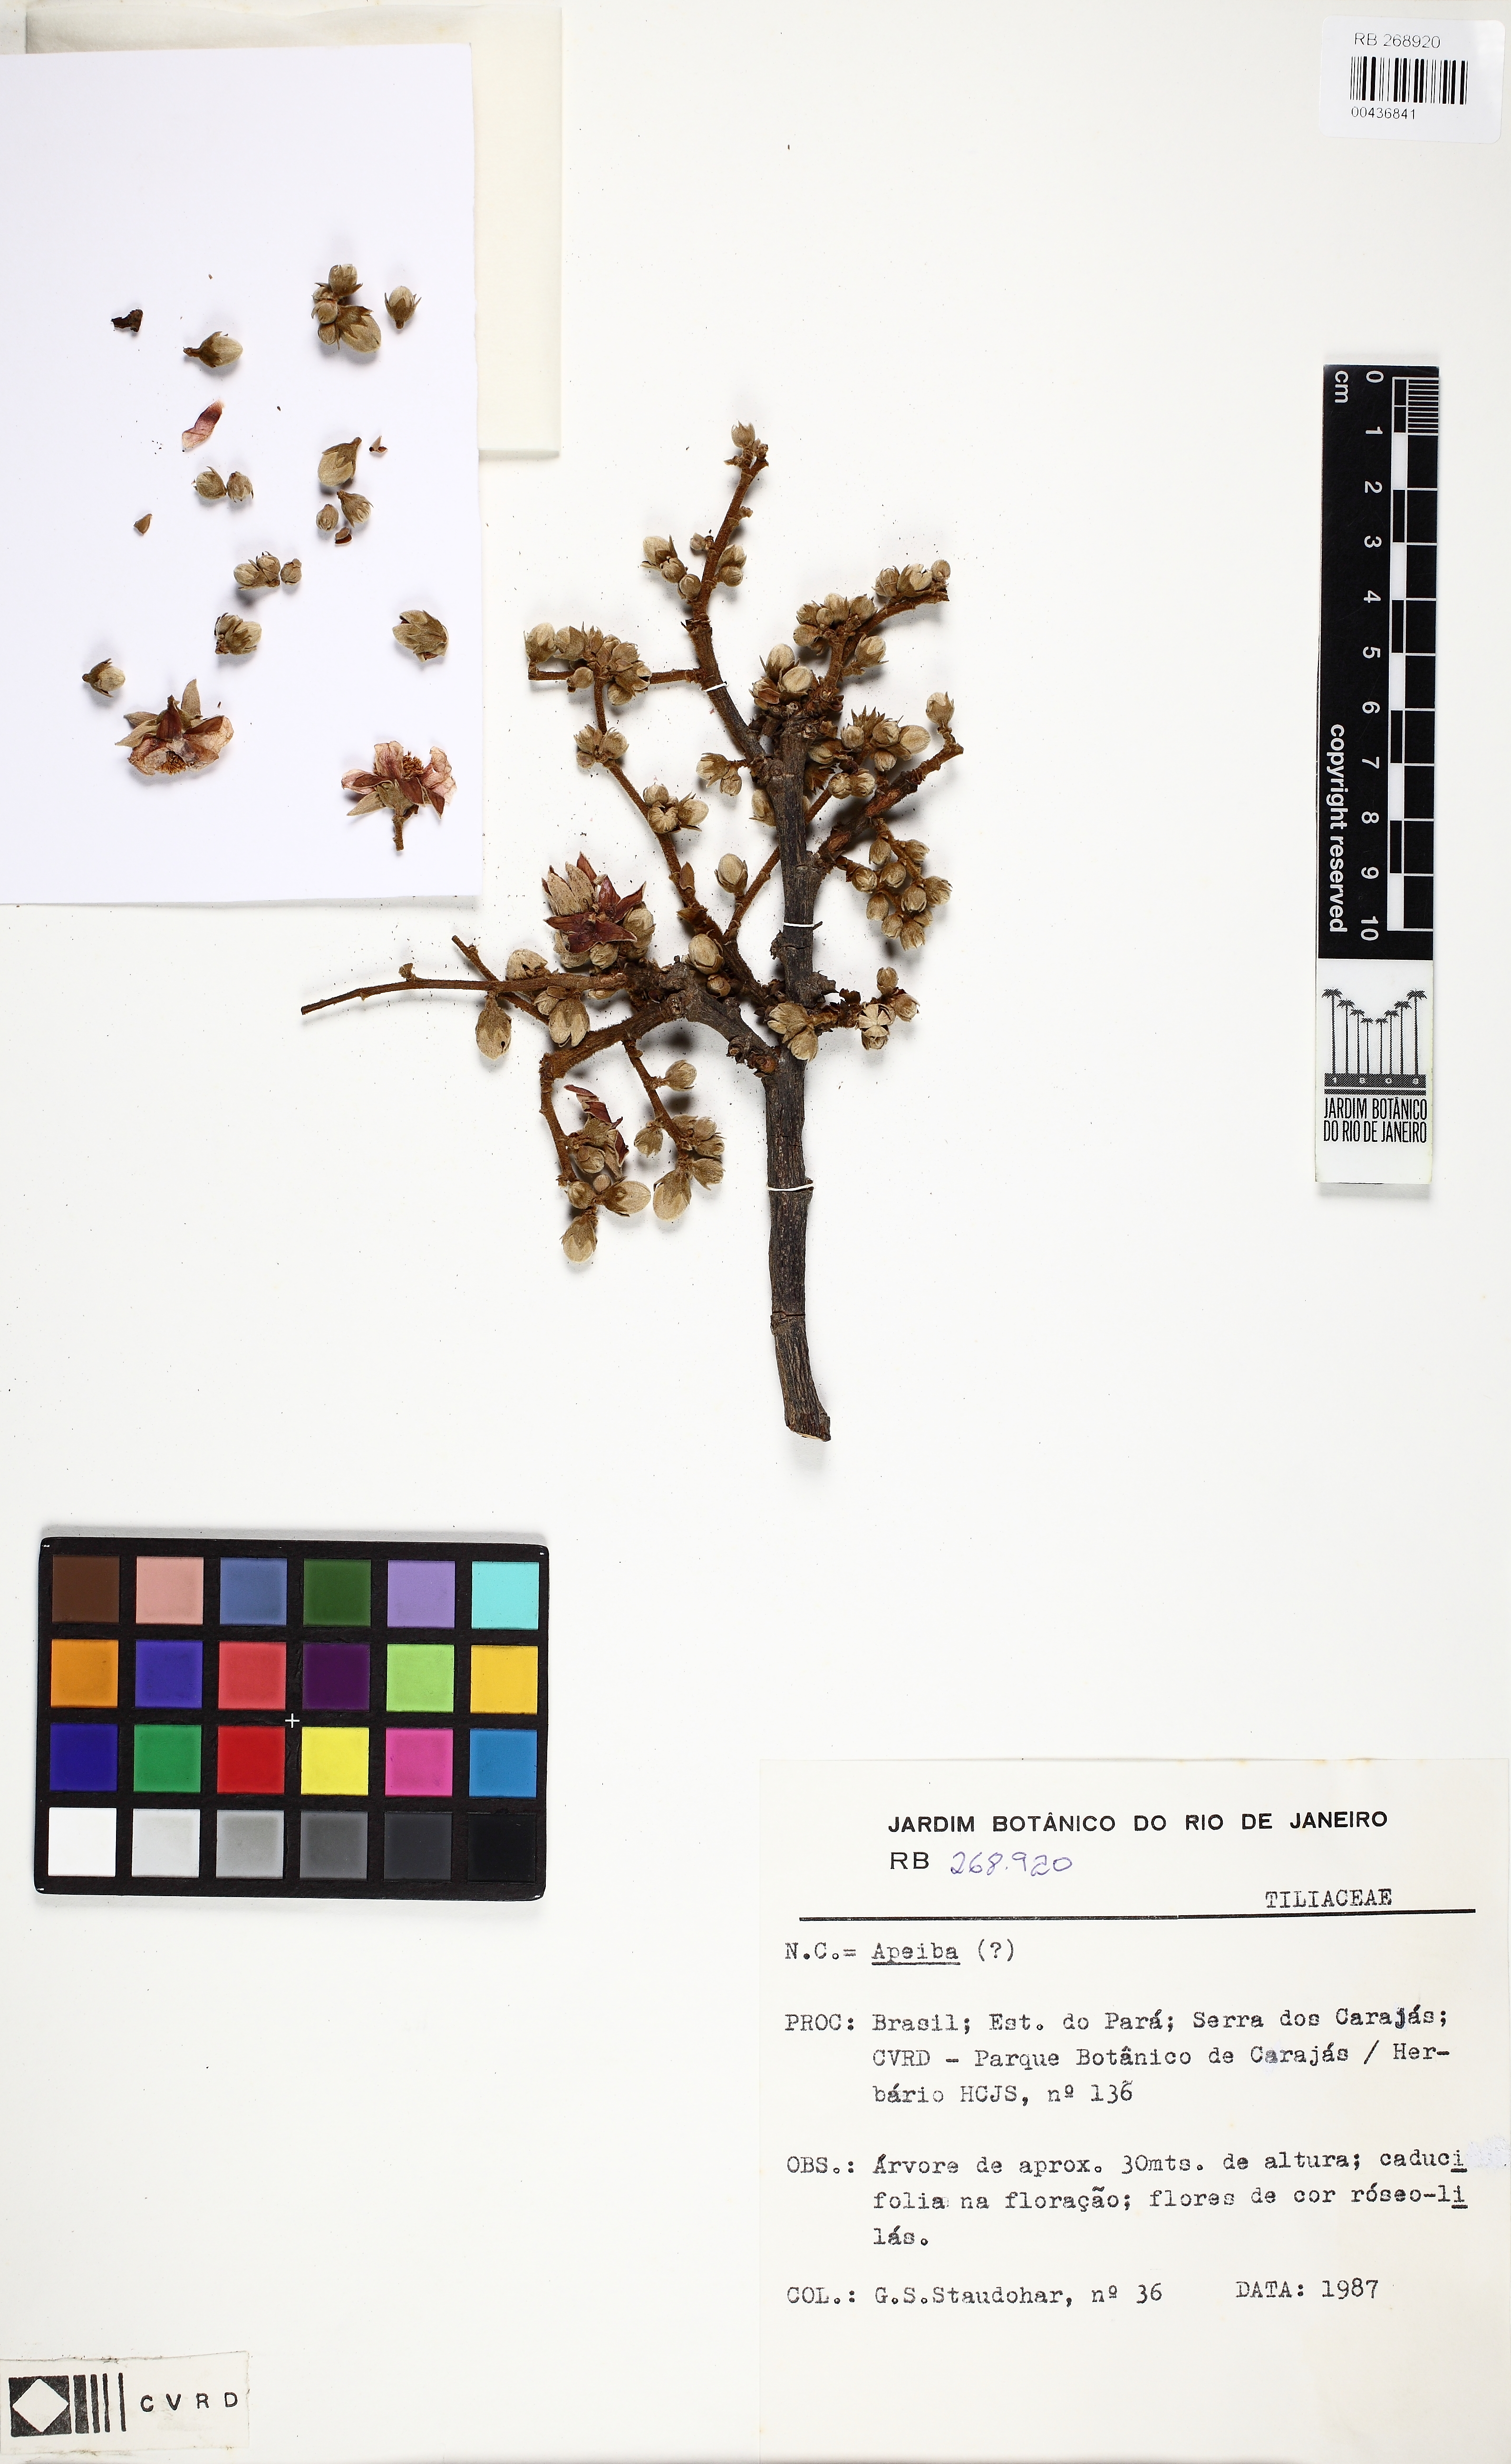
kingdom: Plantae
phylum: Tracheophyta
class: Magnoliopsida
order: Malvales
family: Malvaceae
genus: Lueheopsis
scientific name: Lueheopsis duckeana
